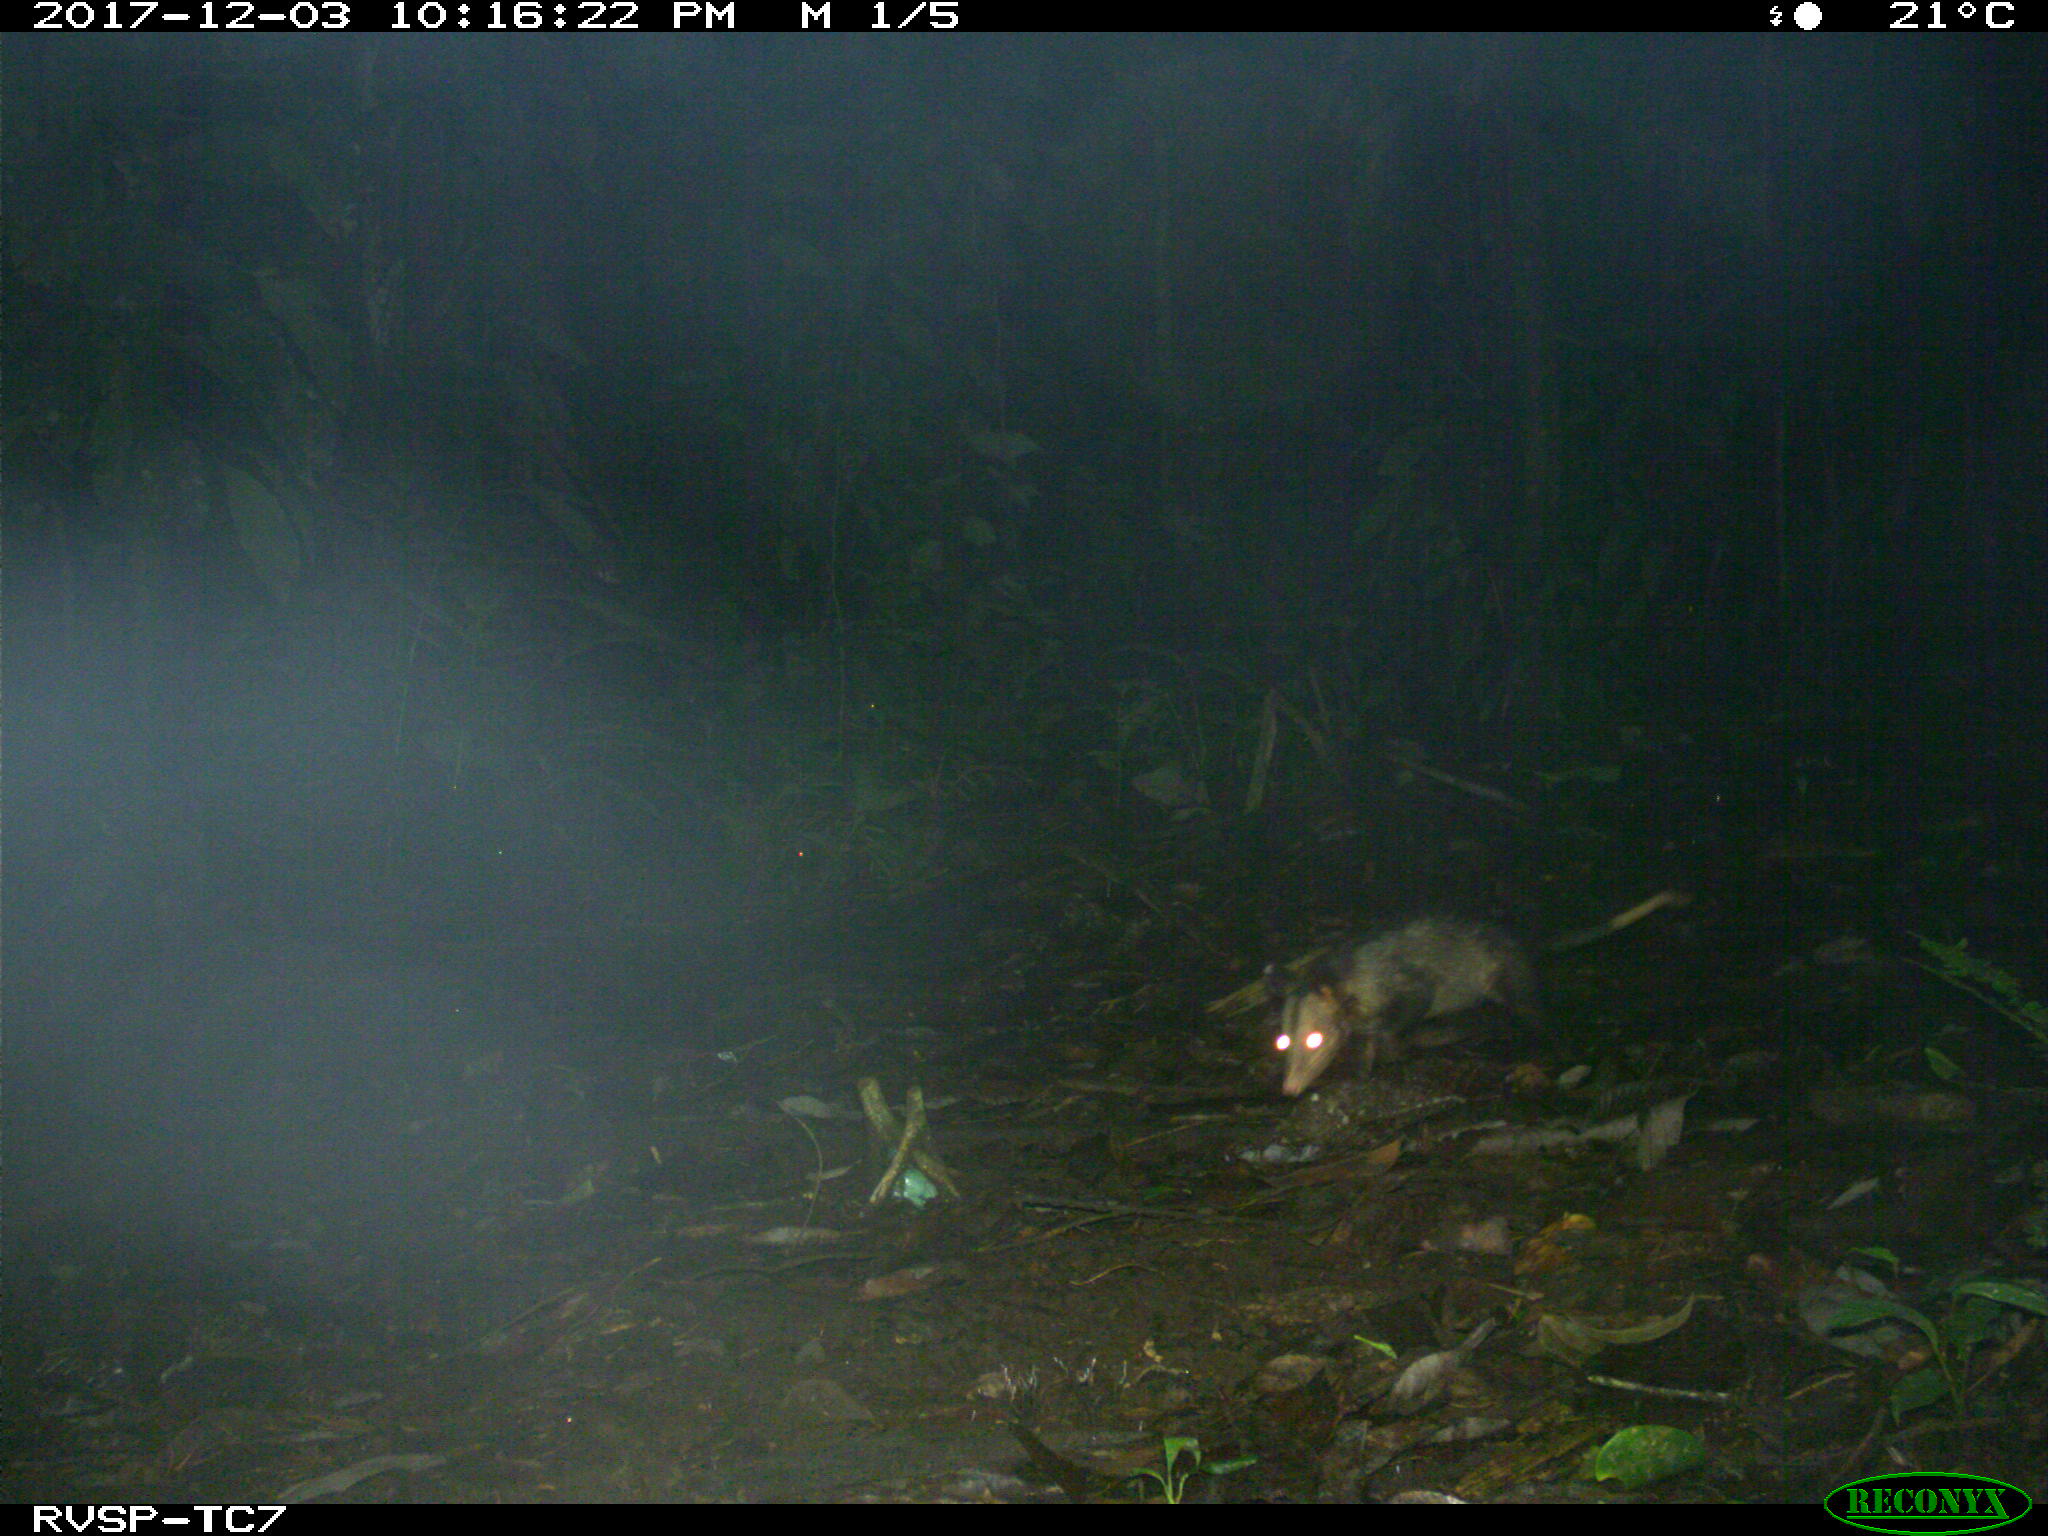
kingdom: Animalia
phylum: Chordata
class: Mammalia
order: Didelphimorphia
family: Didelphidae
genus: Didelphis
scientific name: Didelphis marsupialis
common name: Common opossum
